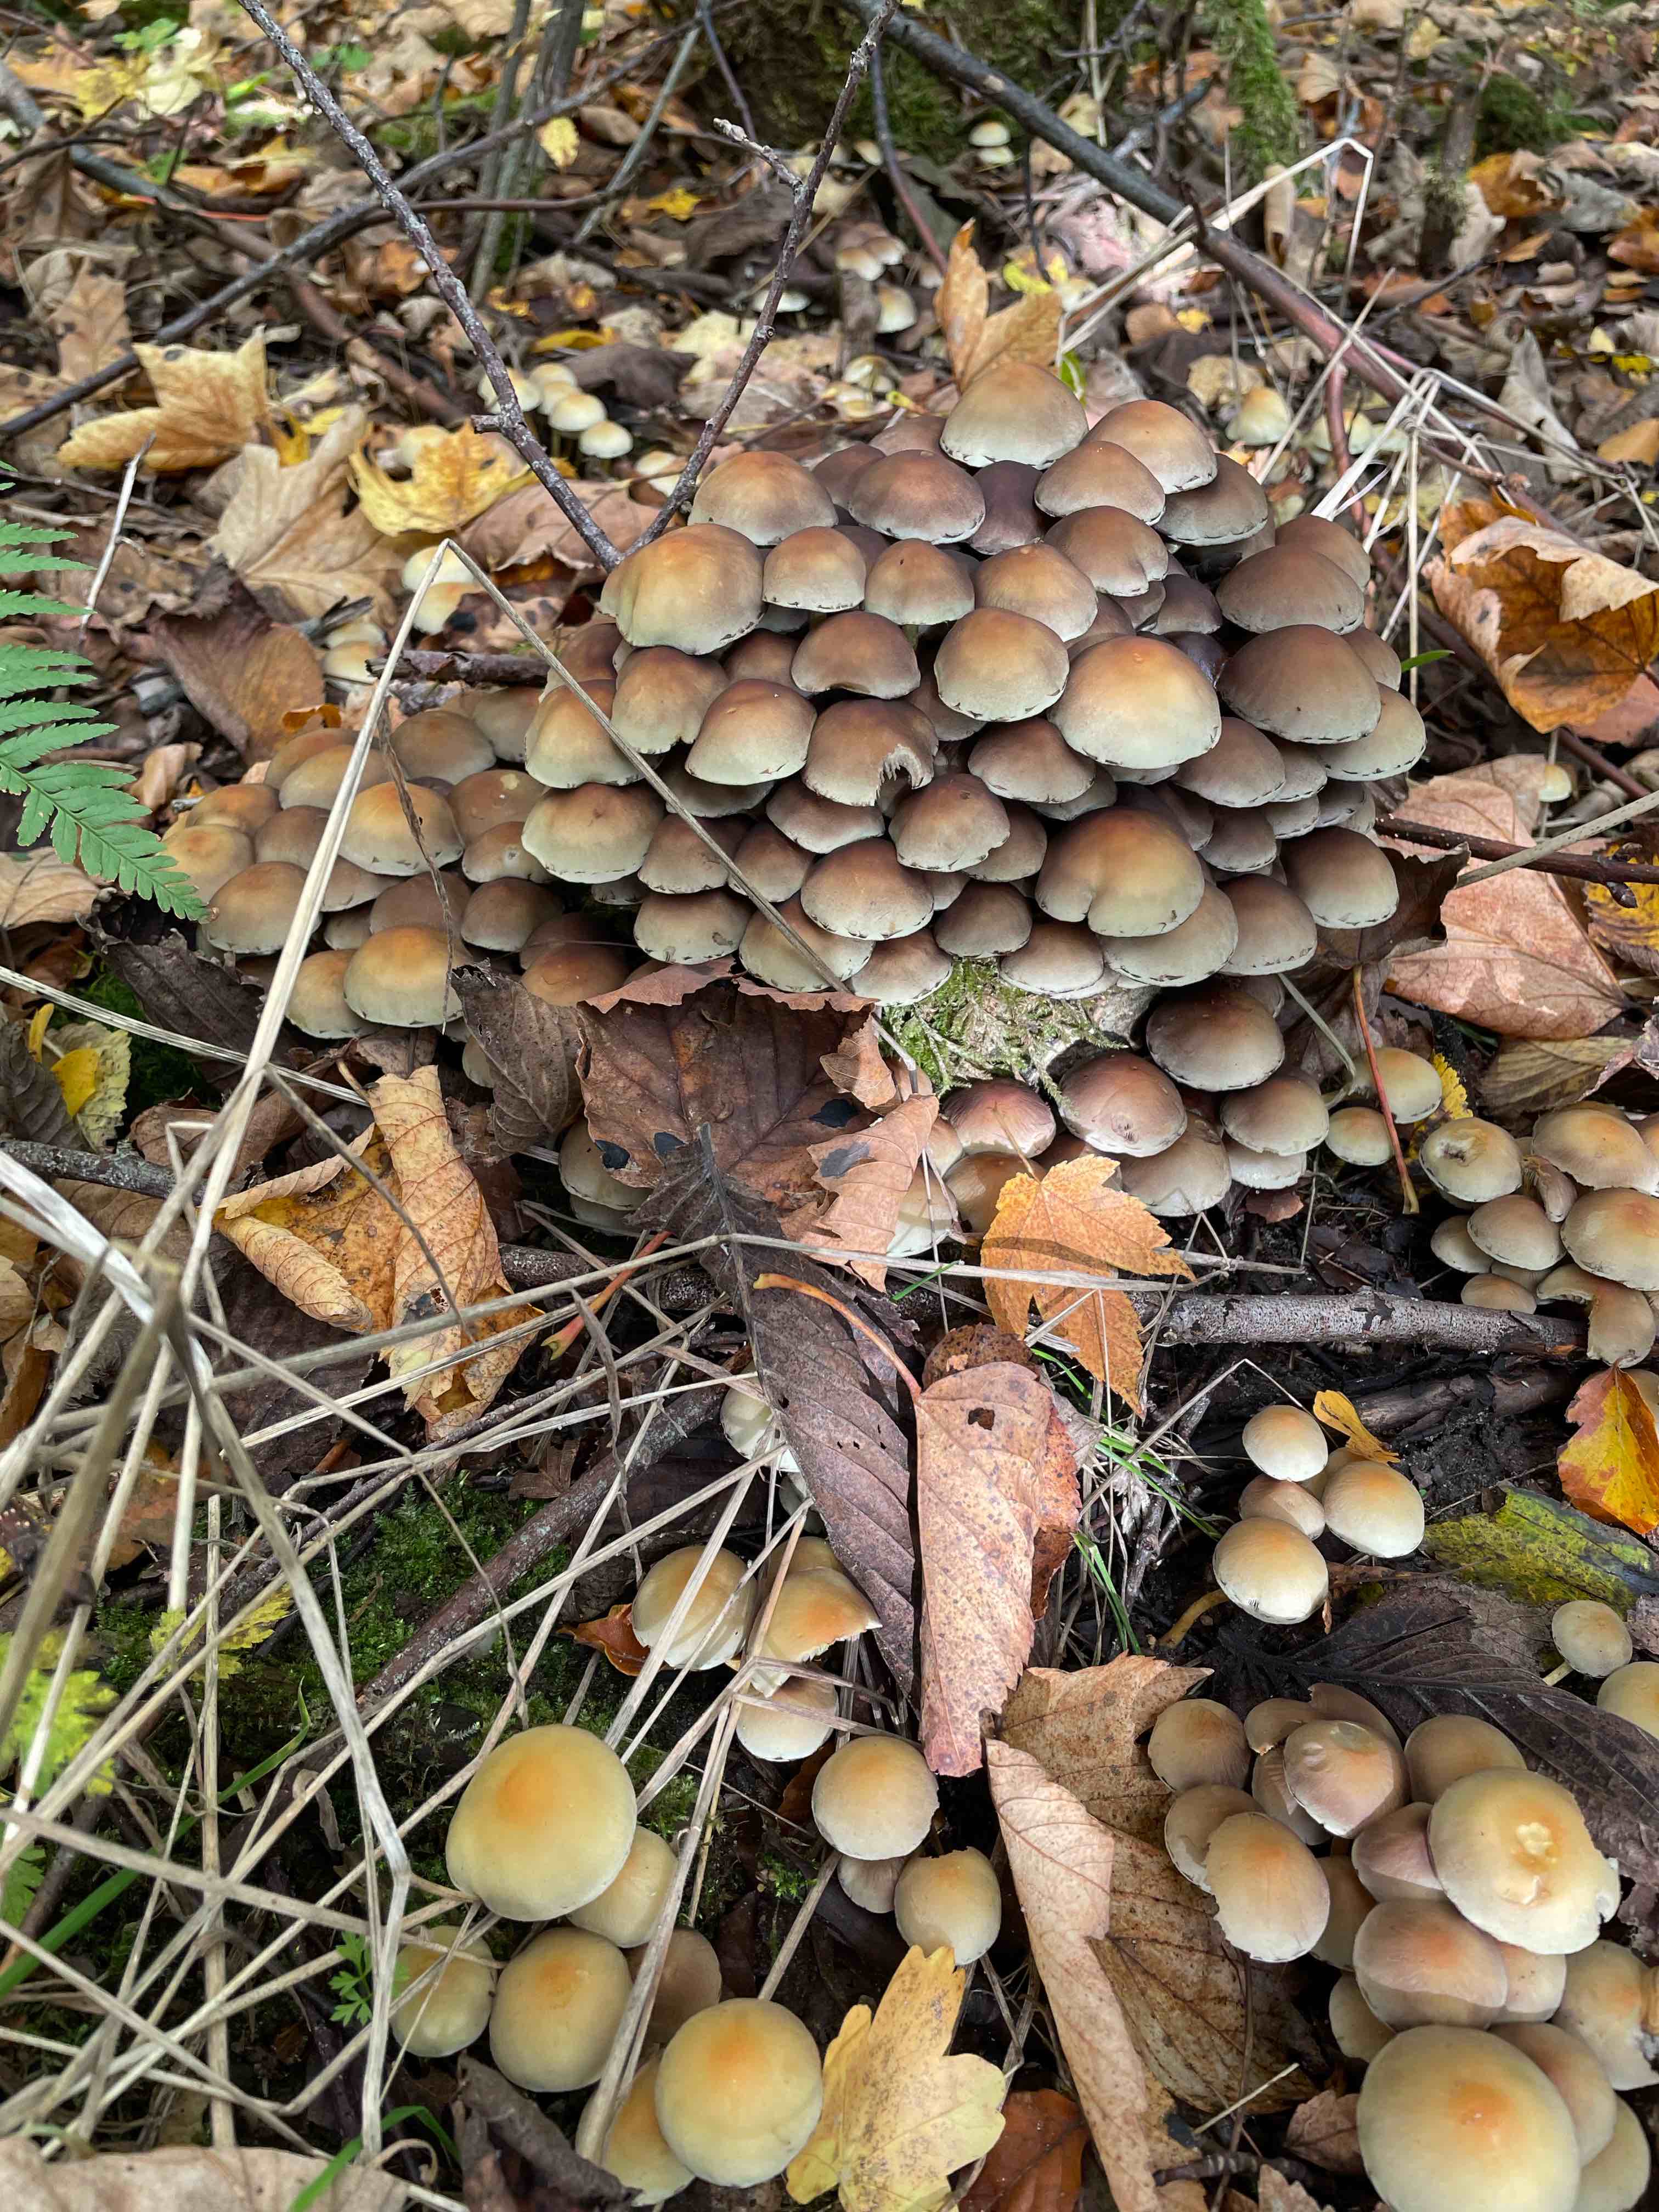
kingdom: Fungi
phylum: Basidiomycota
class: Agaricomycetes
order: Agaricales
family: Strophariaceae
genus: Hypholoma
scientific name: Hypholoma fasciculare
